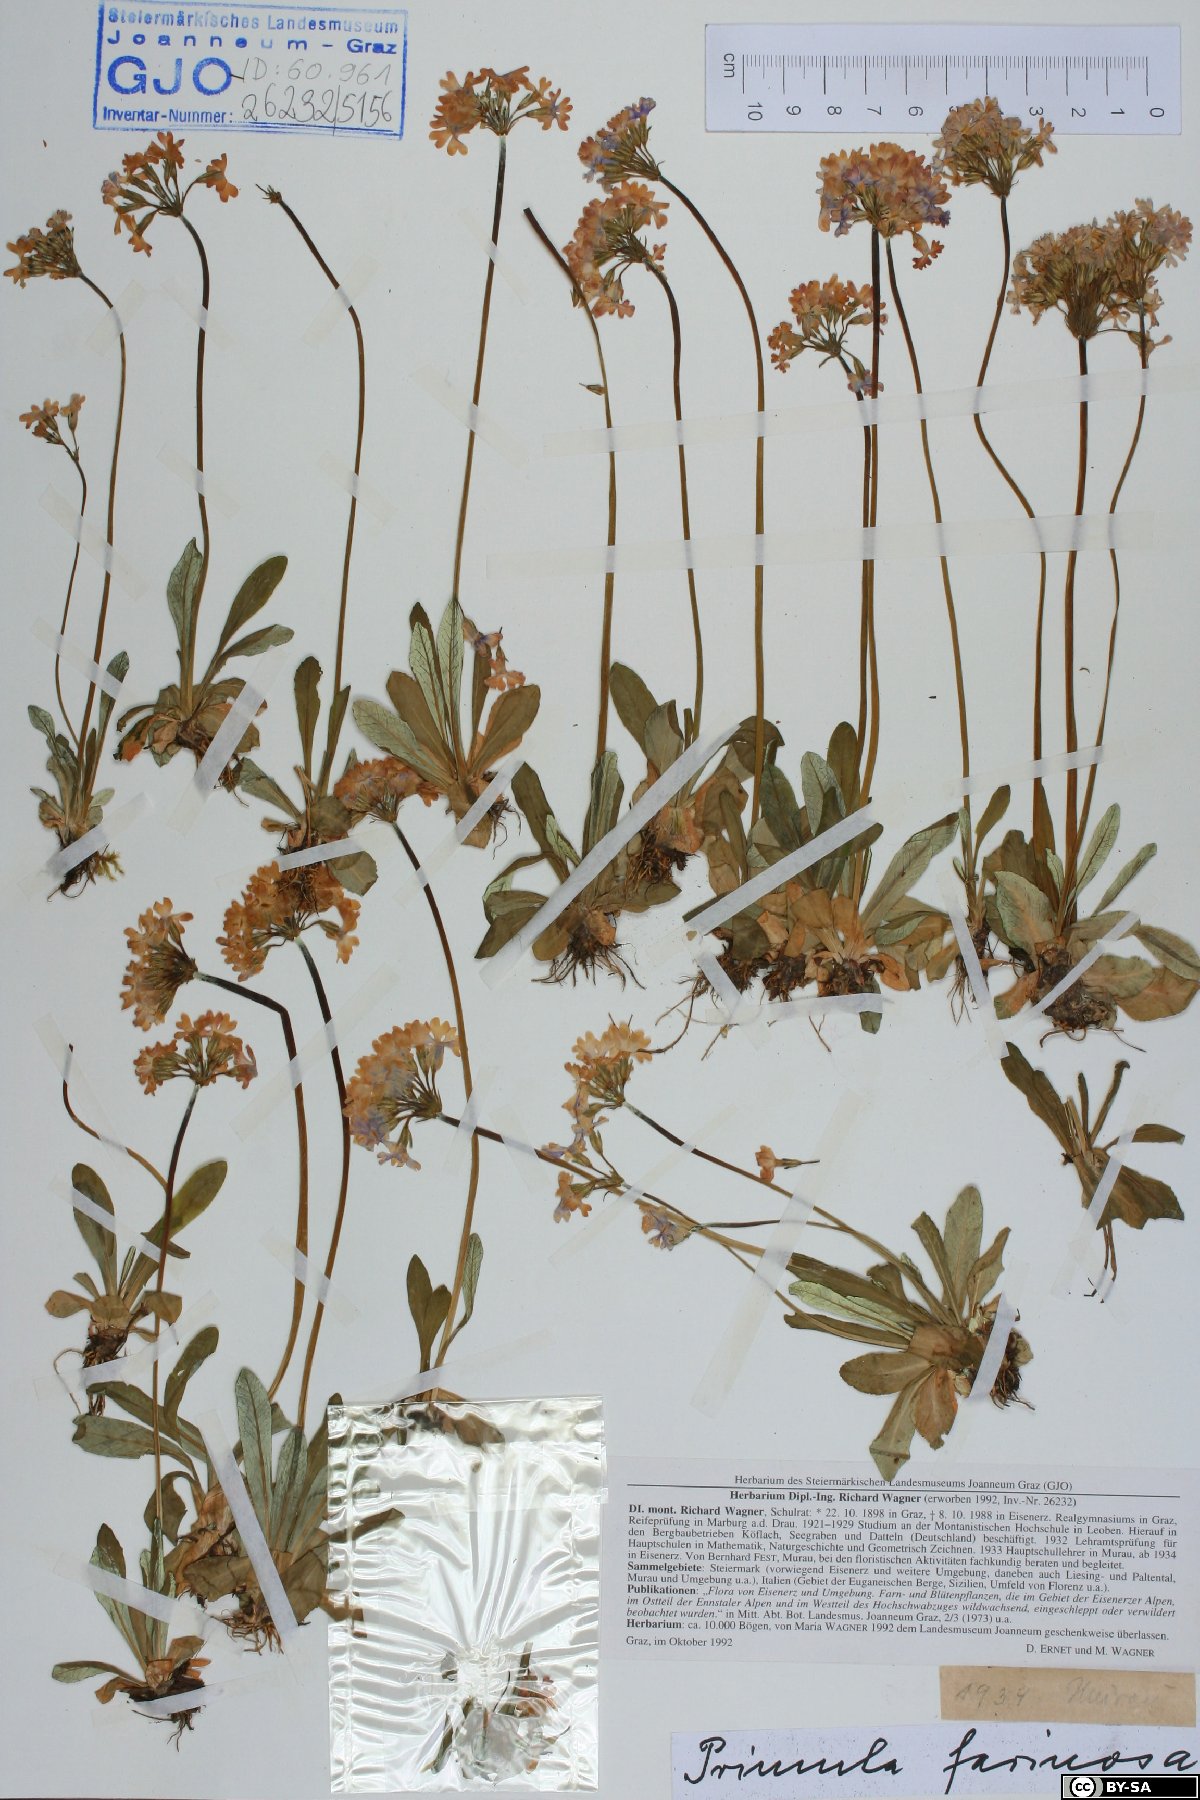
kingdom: Plantae
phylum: Tracheophyta
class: Magnoliopsida
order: Ericales
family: Primulaceae
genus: Primula
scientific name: Primula farinosa
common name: Bird's-eye primrose
